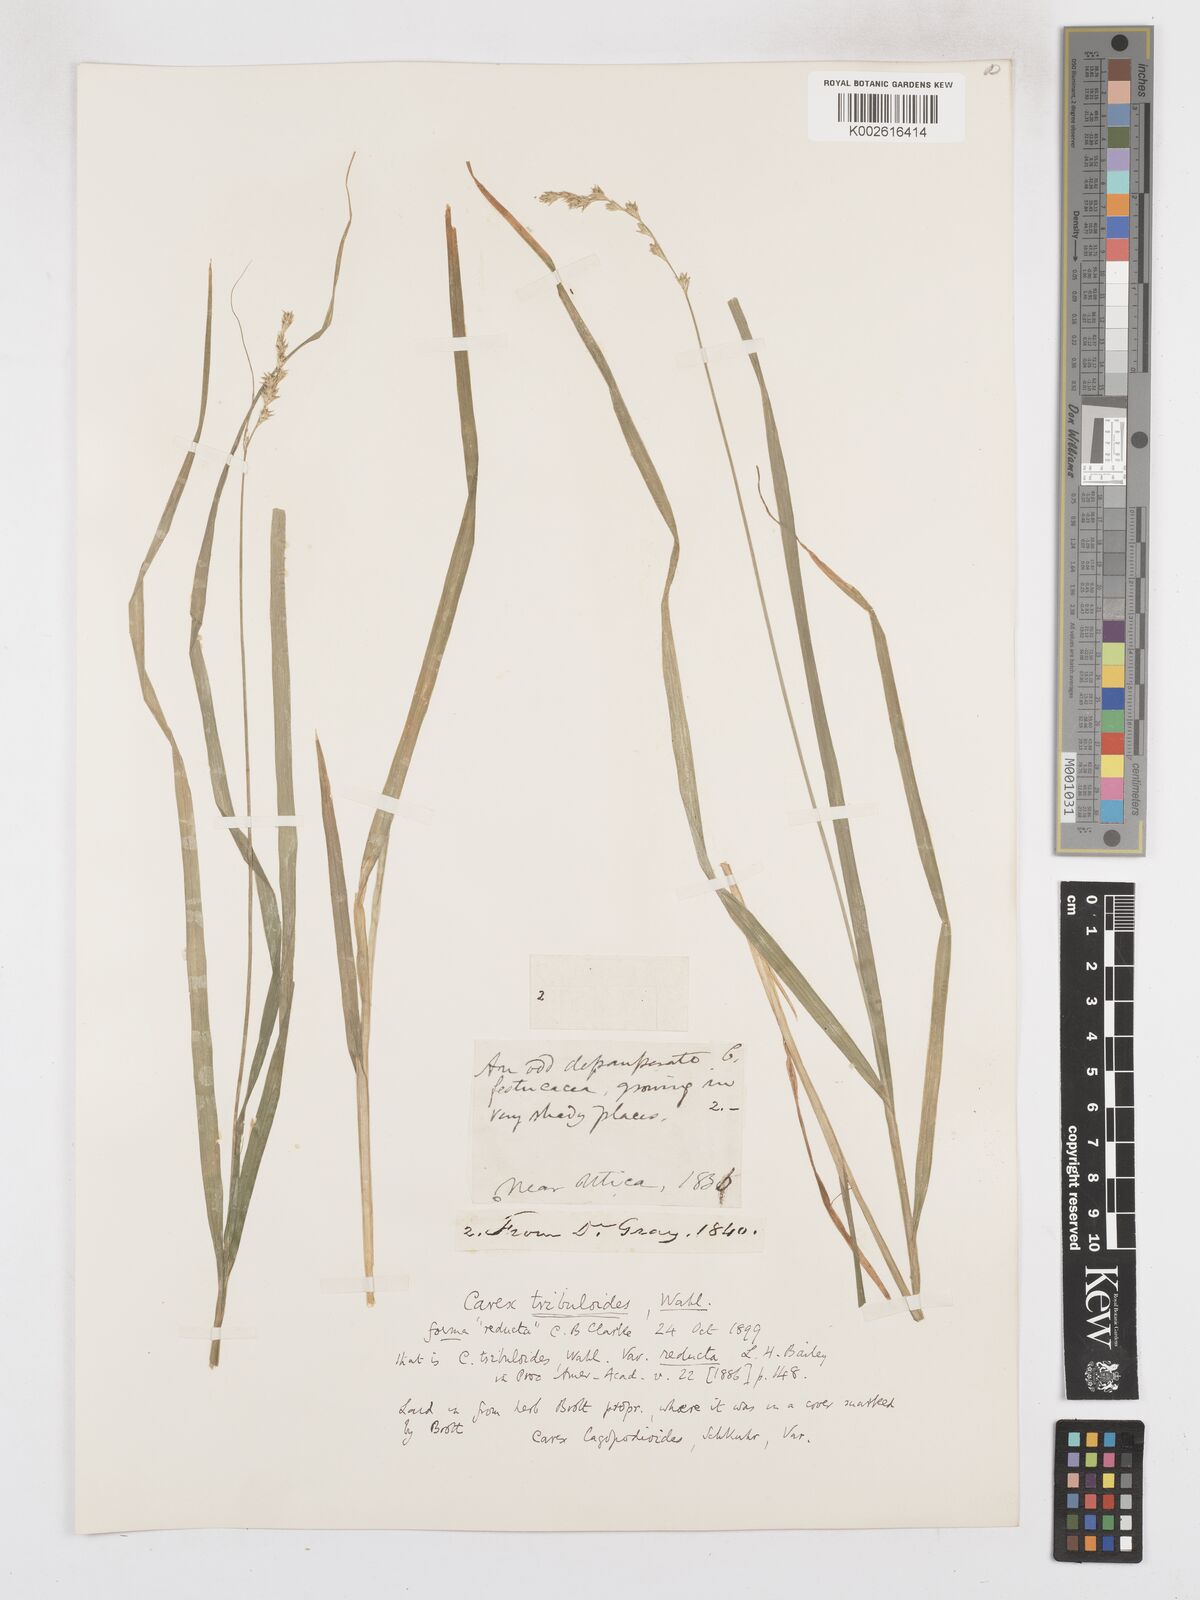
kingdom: Plantae
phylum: Tracheophyta
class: Liliopsida
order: Poales
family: Cyperaceae
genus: Carex
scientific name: Carex tribuloides
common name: Blunt broom sedge
